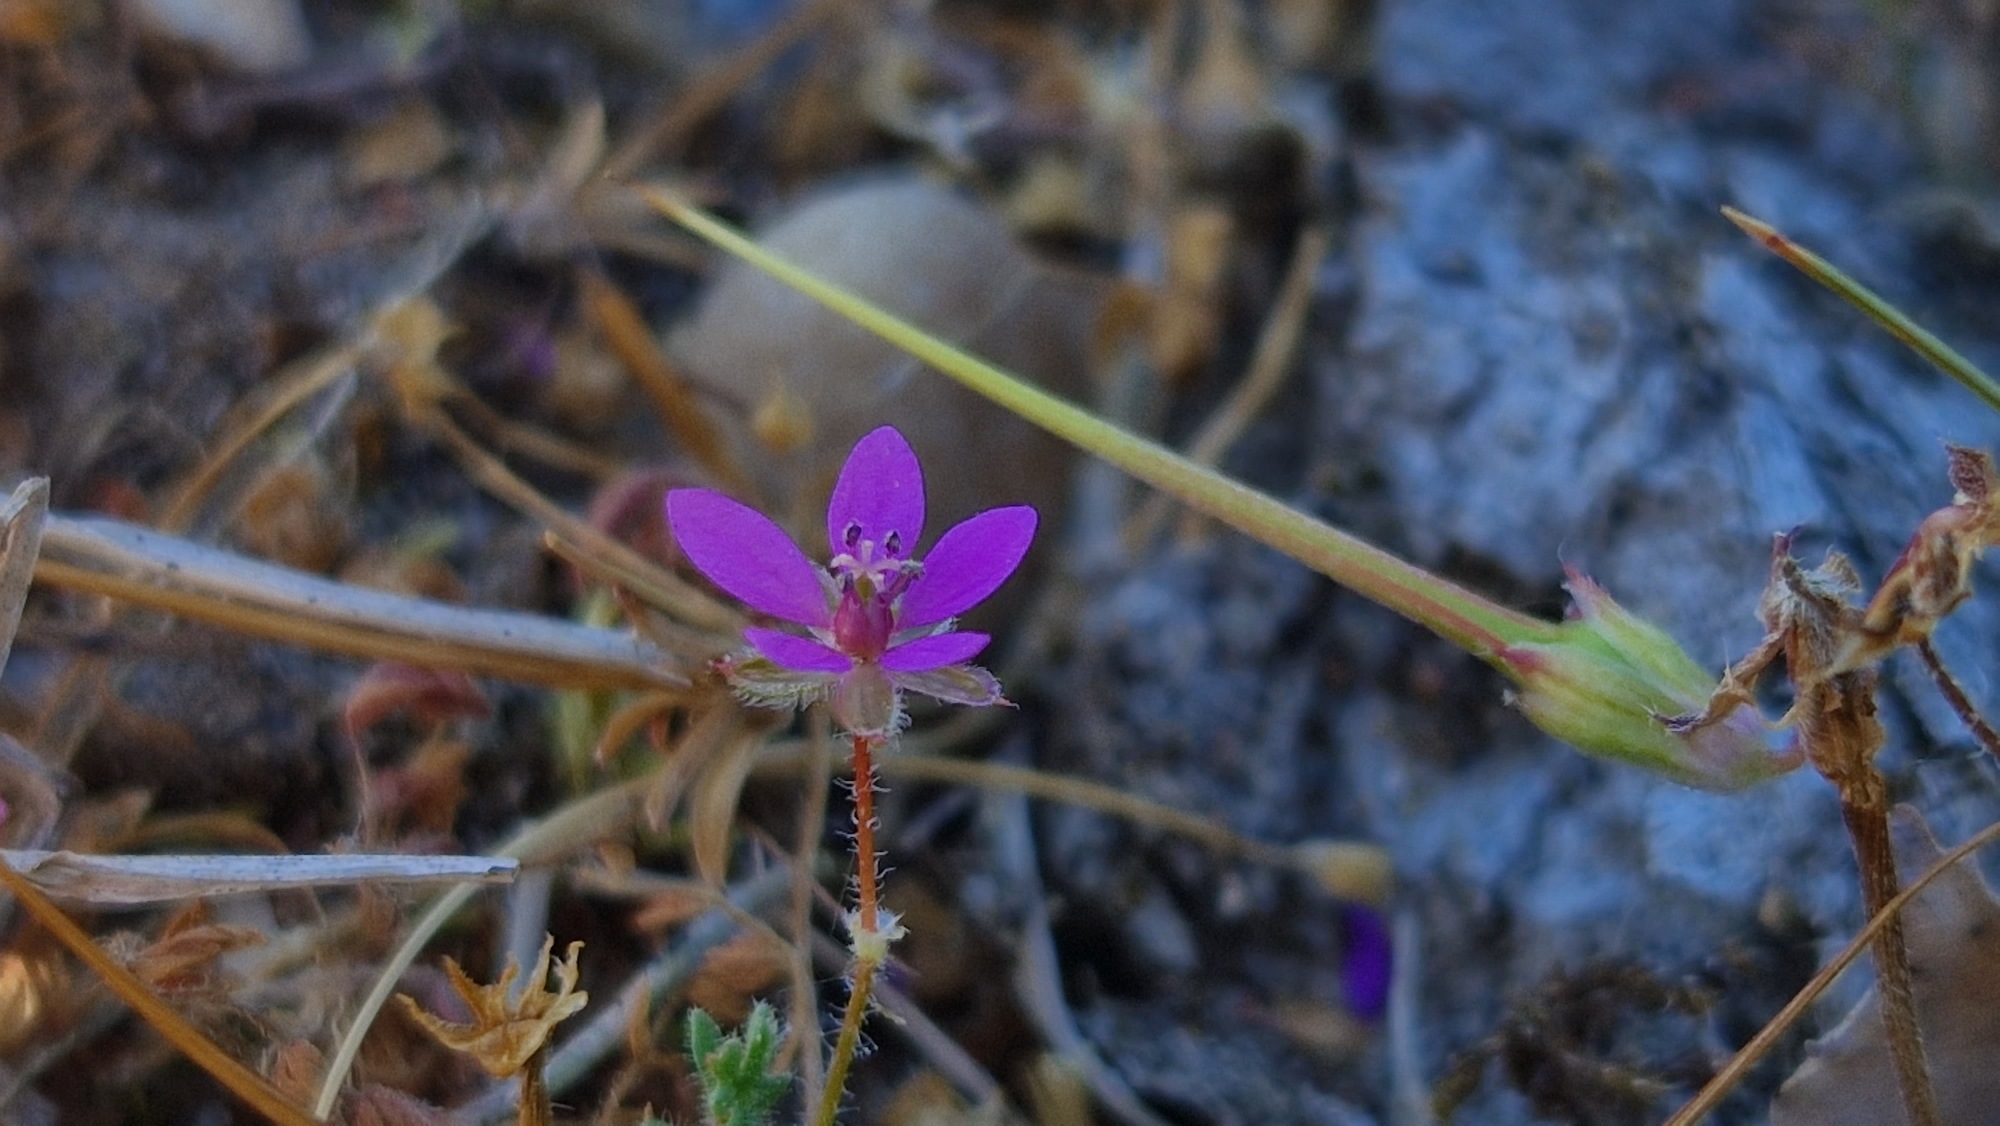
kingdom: Plantae
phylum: Tracheophyta
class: Magnoliopsida
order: Geraniales
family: Geraniaceae
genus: Erodium
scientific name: Erodium cicutarium
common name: Hejrenæb
